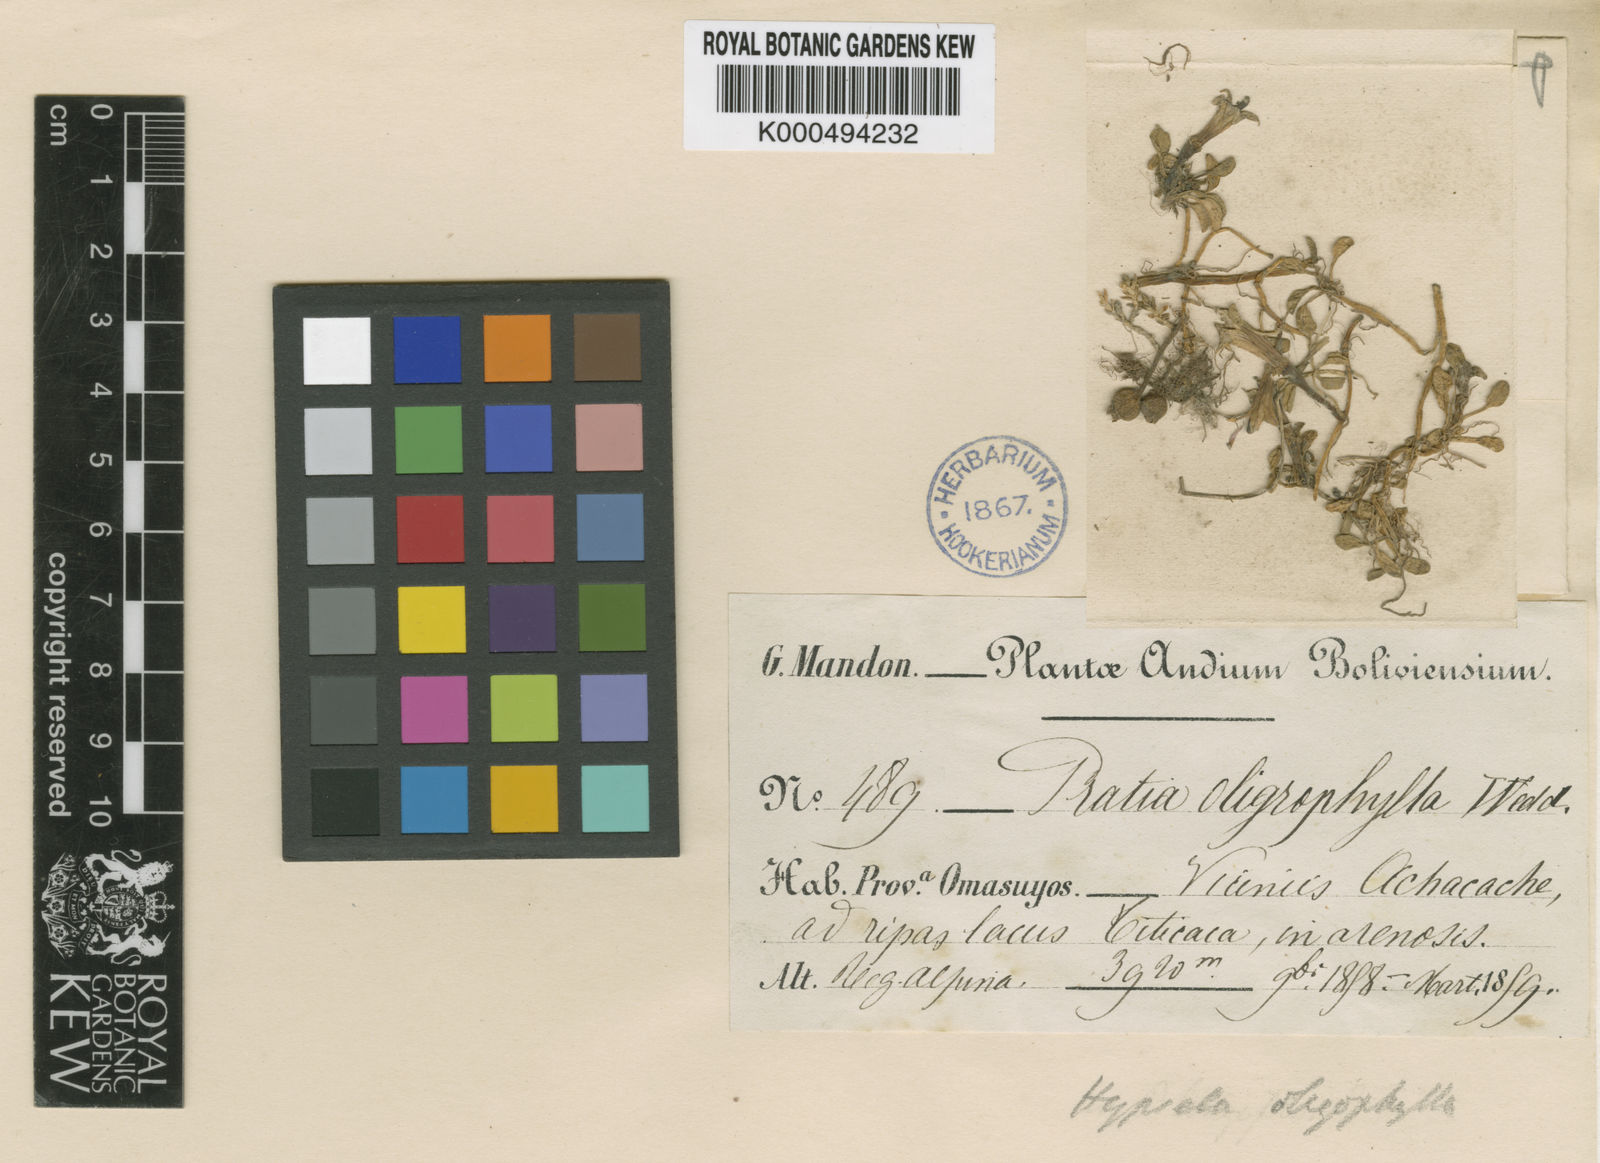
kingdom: Plantae
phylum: Tracheophyta
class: Magnoliopsida
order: Asterales
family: Campanulaceae
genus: Hypsela
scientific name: Hypsela
